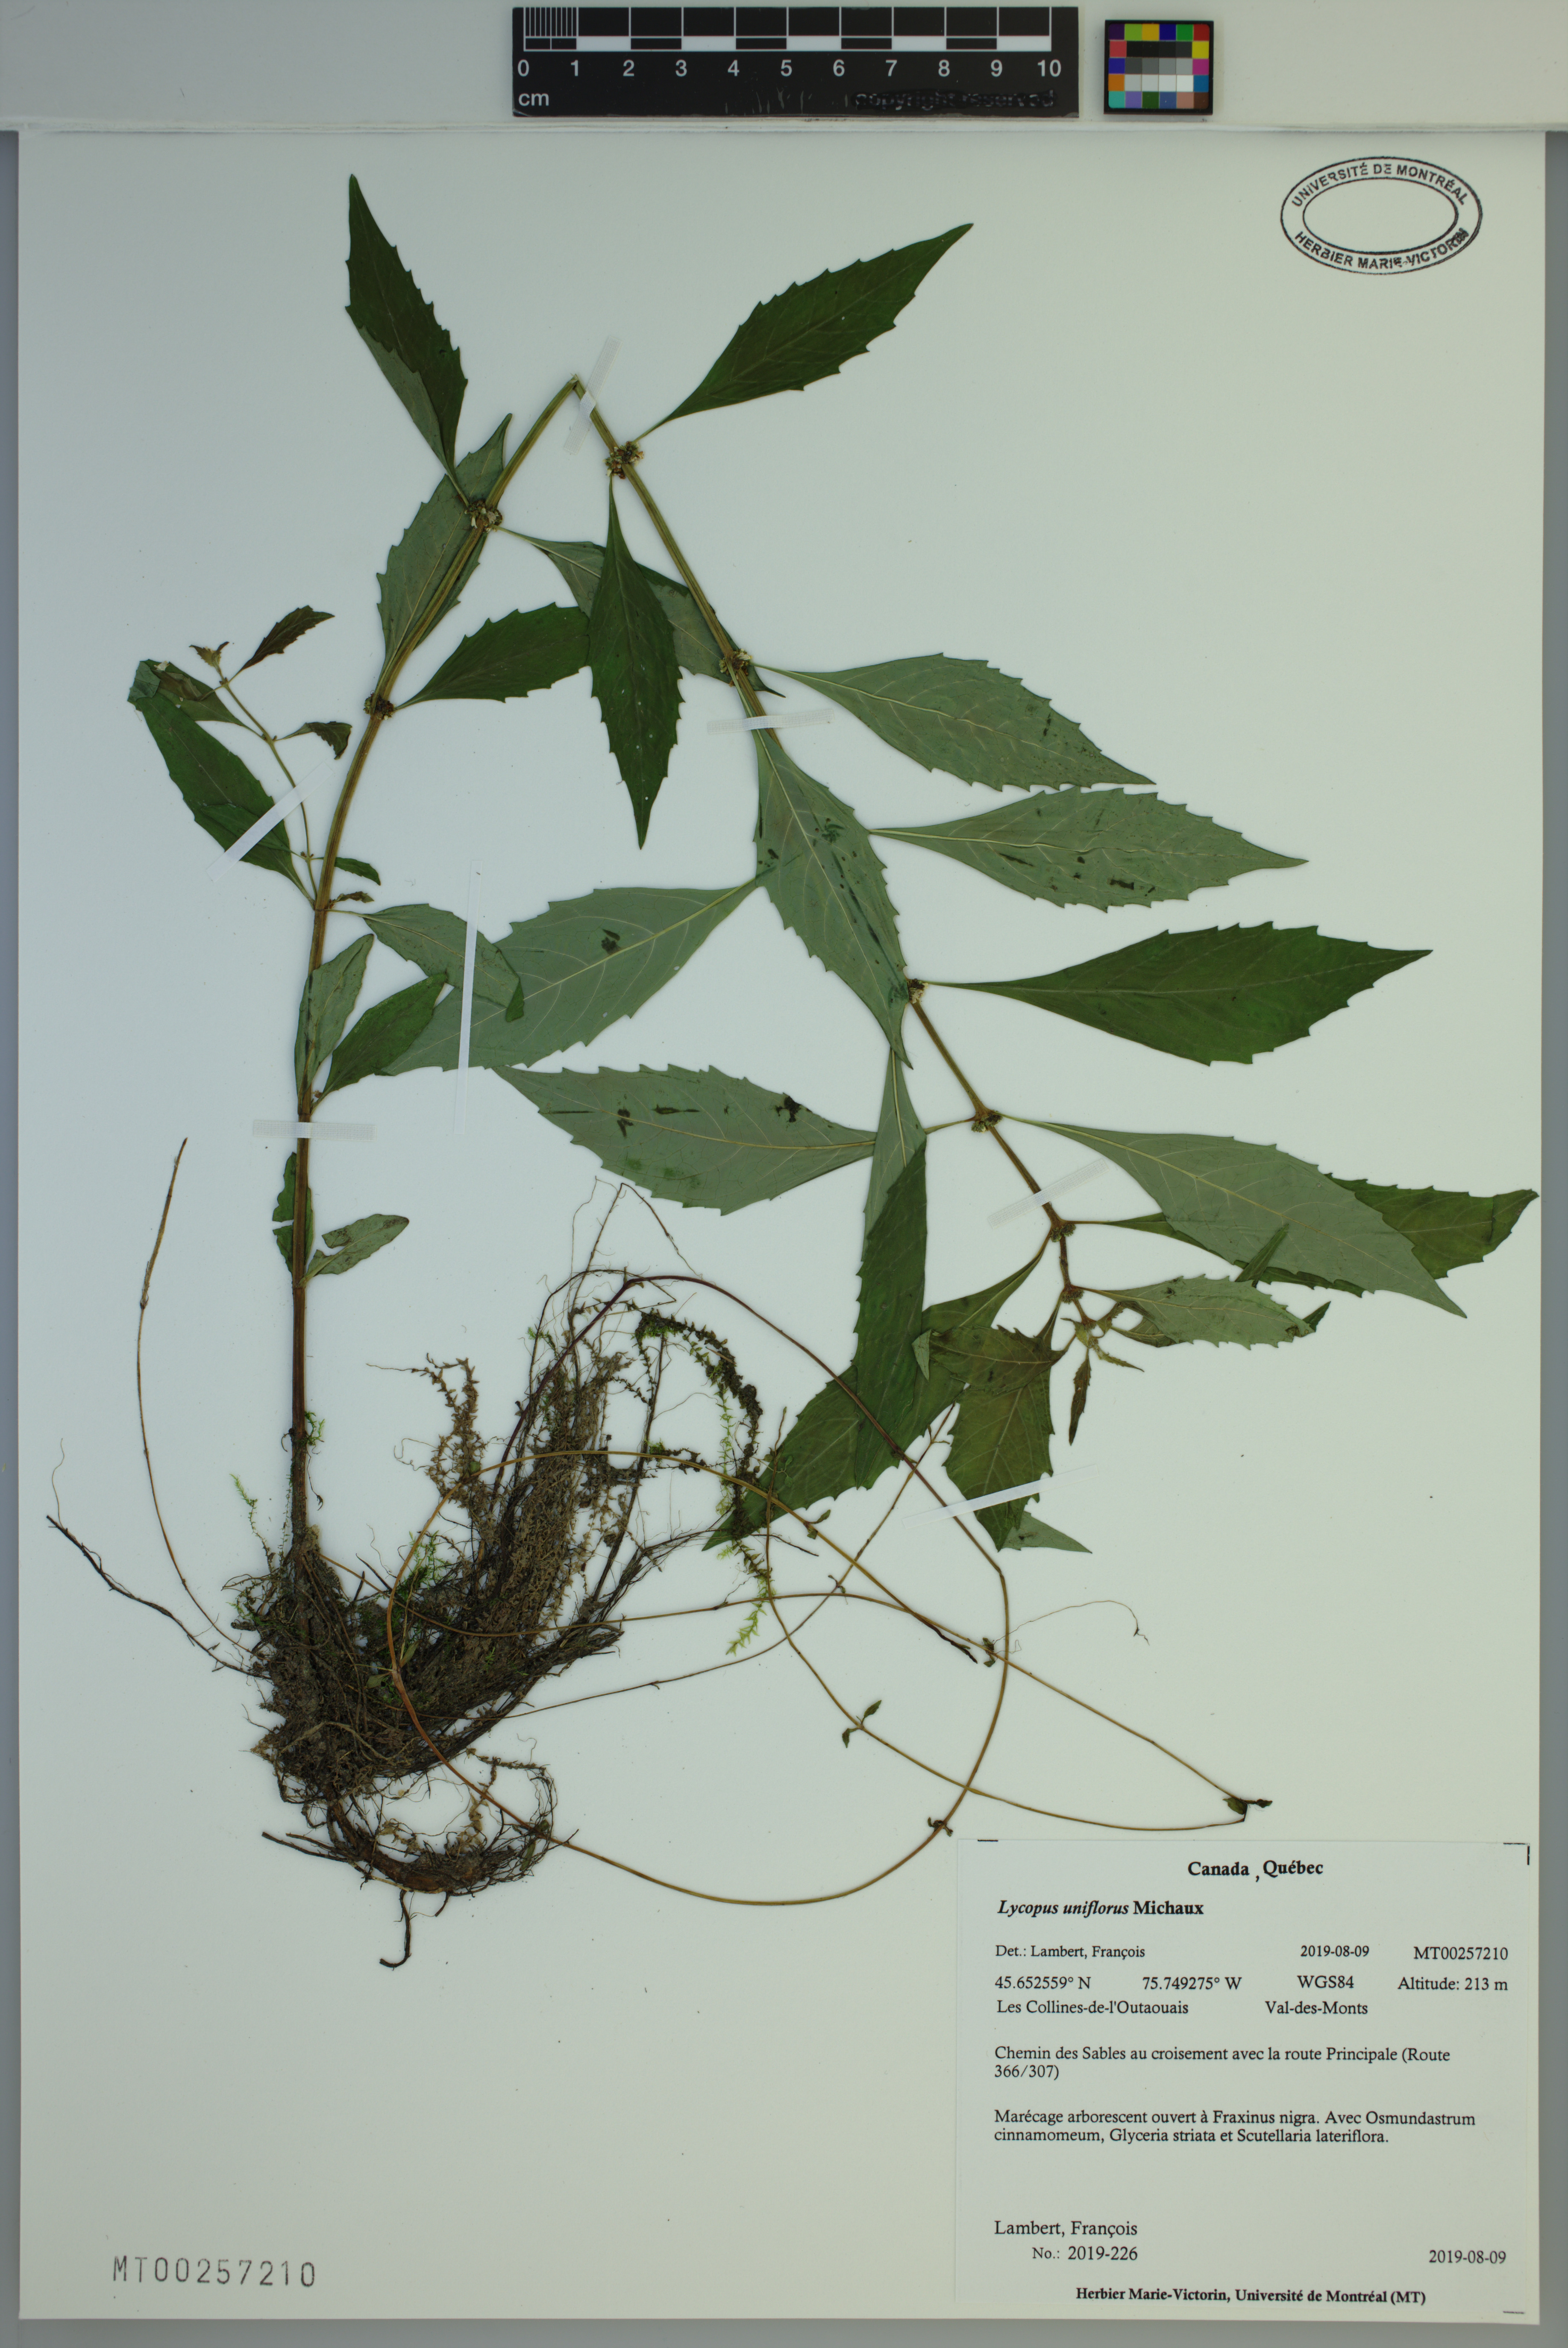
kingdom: Plantae
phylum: Tracheophyta
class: Magnoliopsida
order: Lamiales
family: Lamiaceae
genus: Lycopus
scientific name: Lycopus uniflorus
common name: Northern bugleweed
